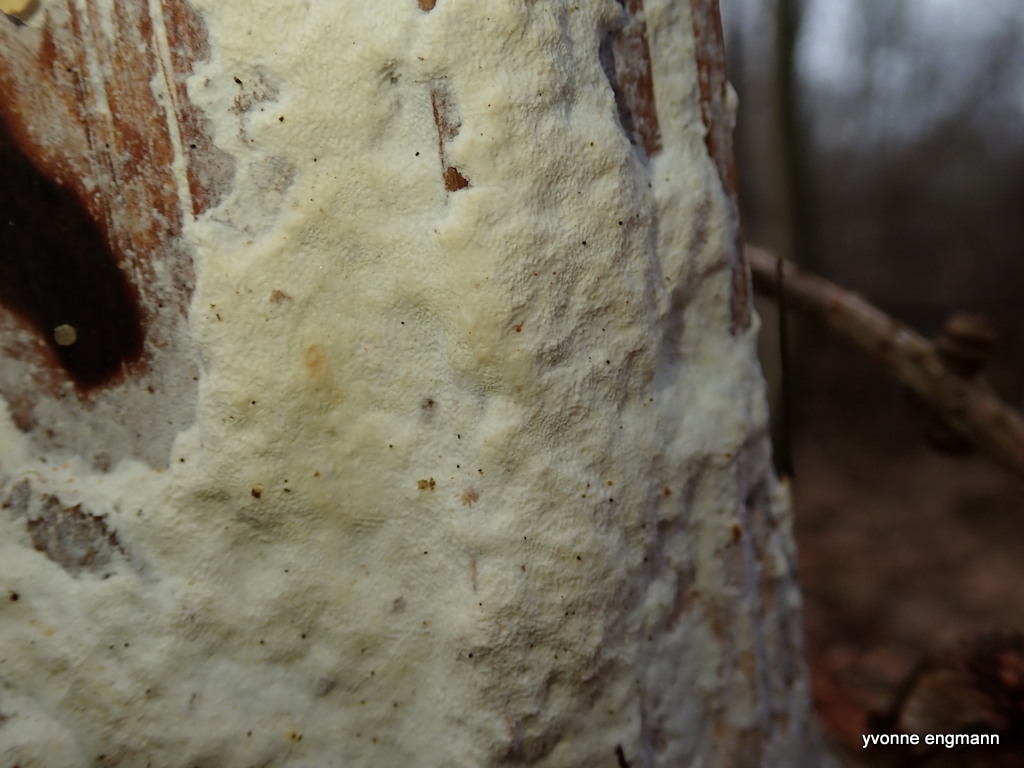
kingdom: Fungi
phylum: Basidiomycota
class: Agaricomycetes
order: Polyporales
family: Fomitopsidaceae
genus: Daedalea
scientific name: Daedalea xantha
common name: gul sejporesvamp
